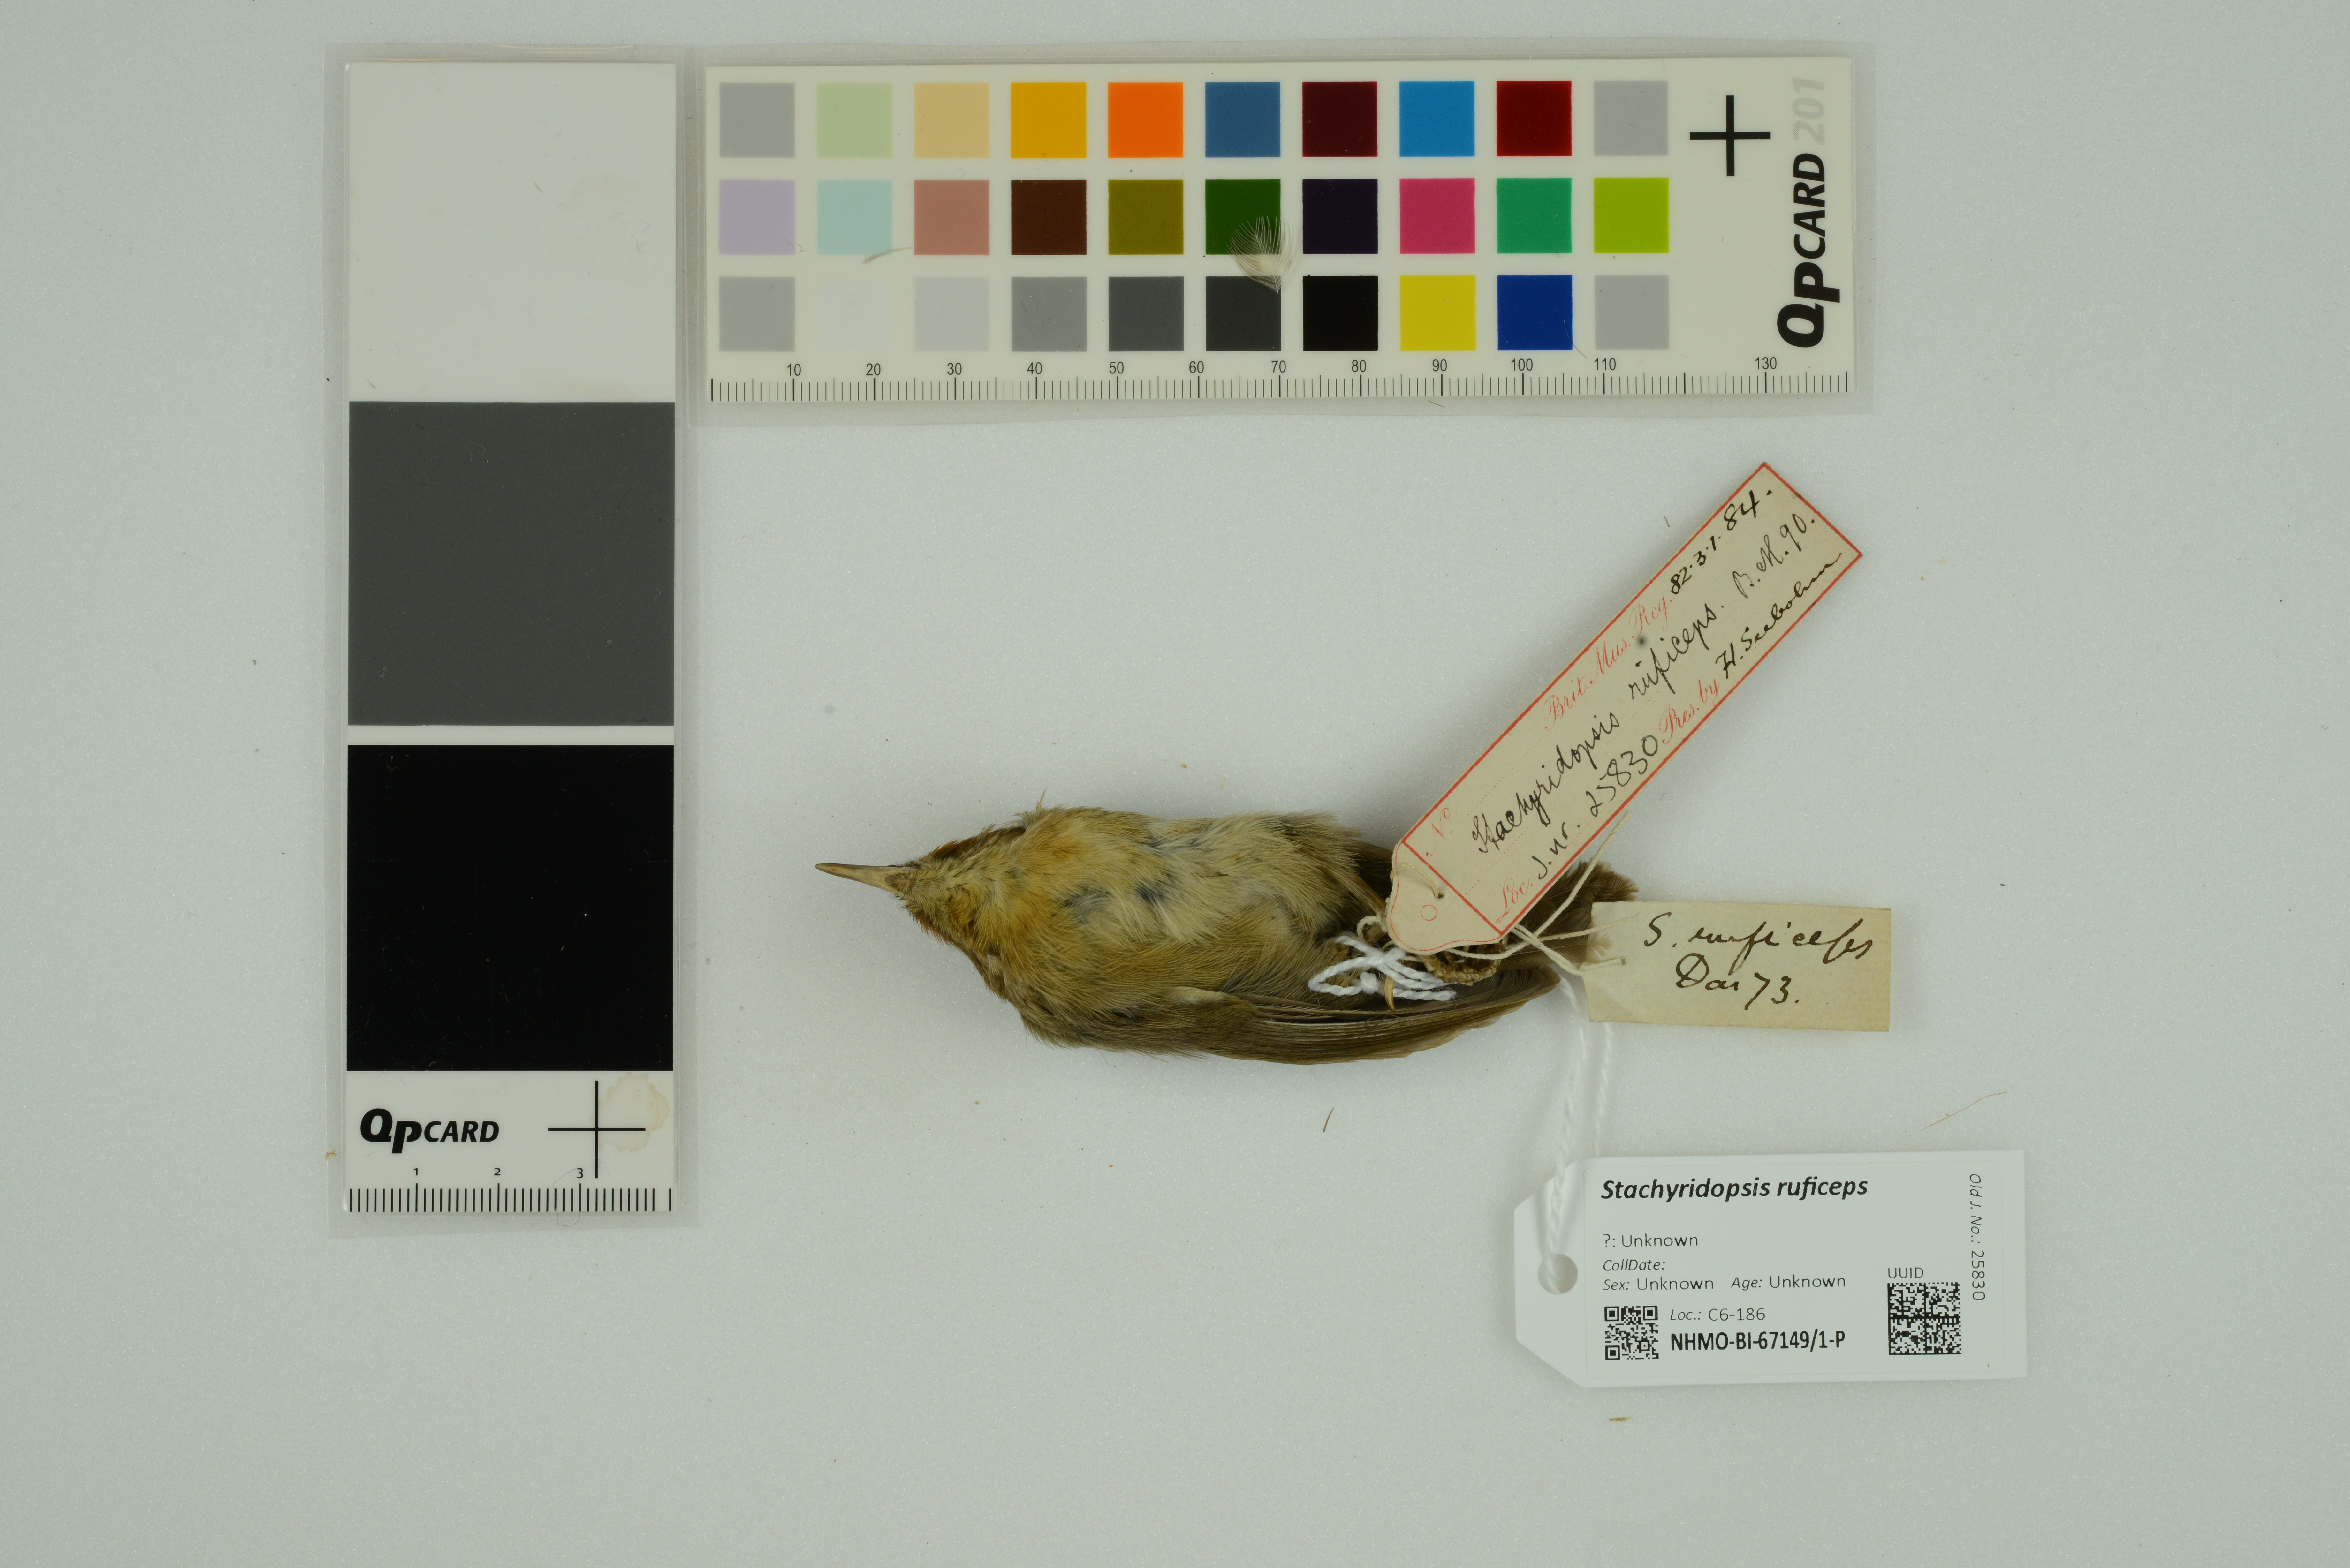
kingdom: Animalia
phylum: Chordata
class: Aves
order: Passeriformes
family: Timaliidae
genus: Stachyridopsis
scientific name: Stachyridopsis ruficeps
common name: Rufous-capped babbler
